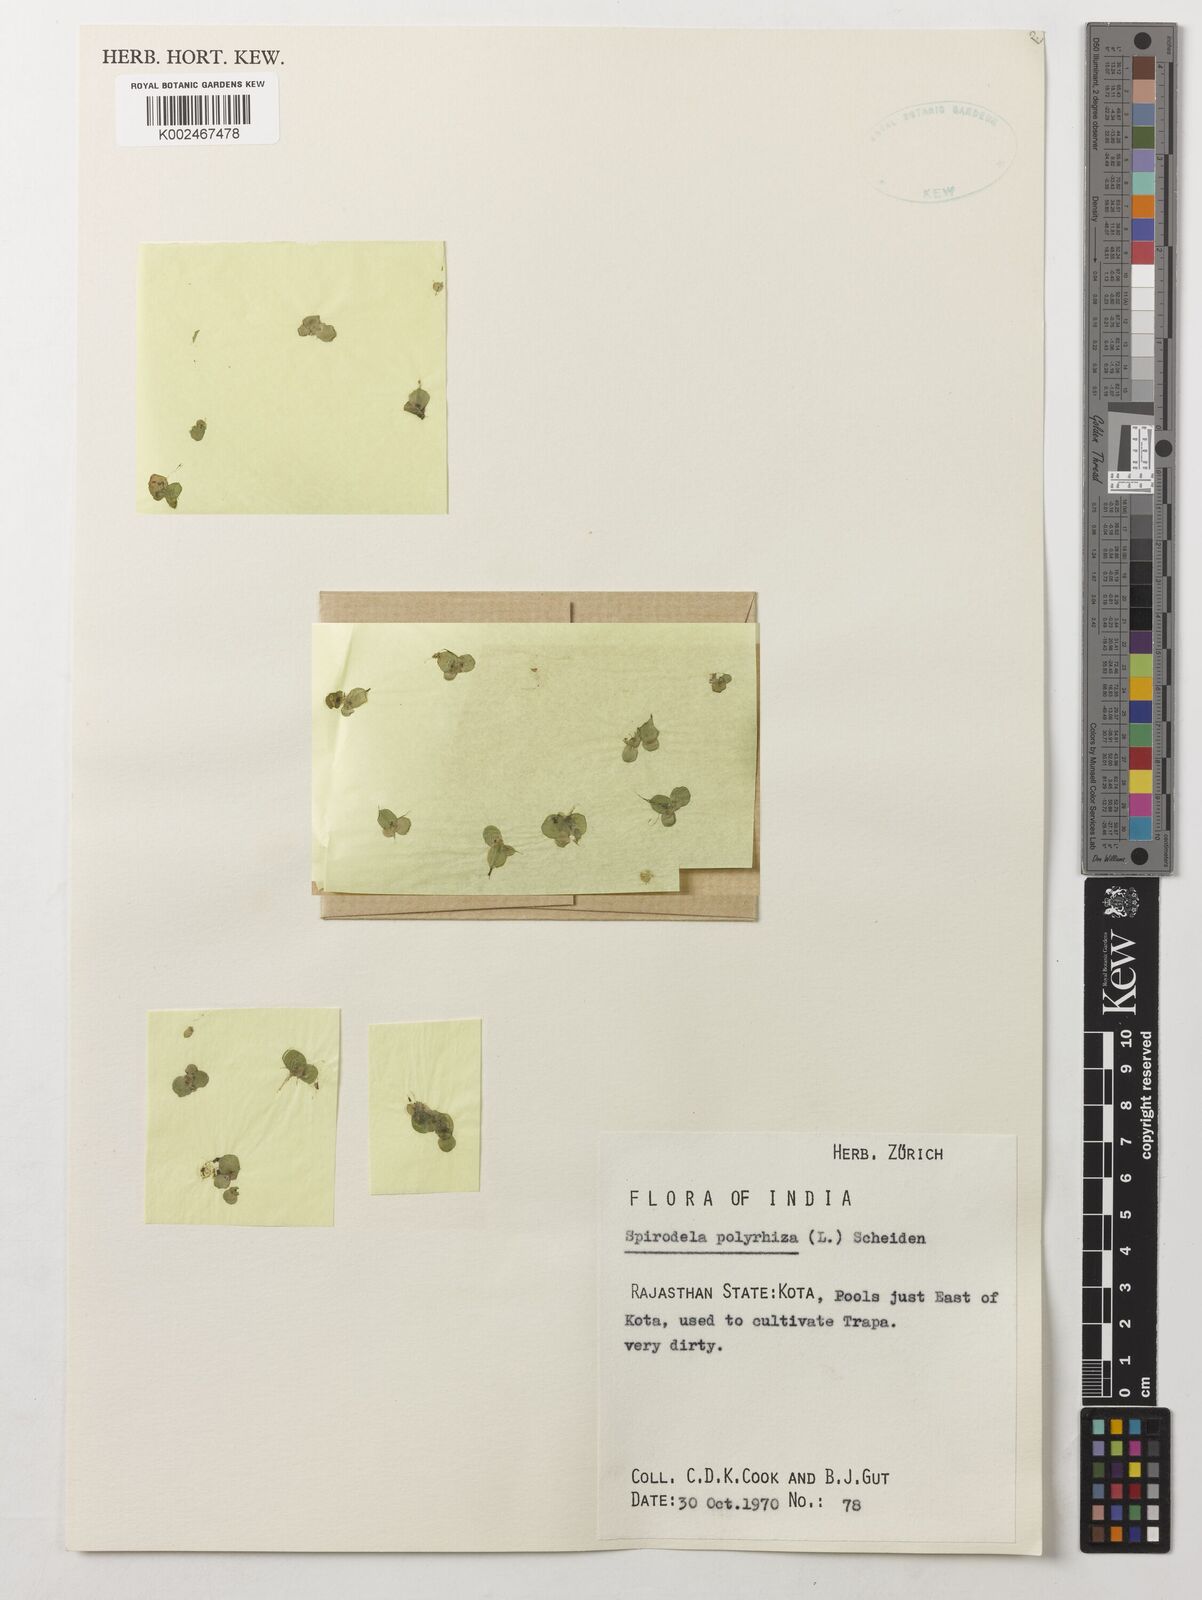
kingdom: Plantae
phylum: Tracheophyta
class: Liliopsida
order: Alismatales
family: Araceae
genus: Spirodela
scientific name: Spirodela polyrhiza
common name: Great duckweed
